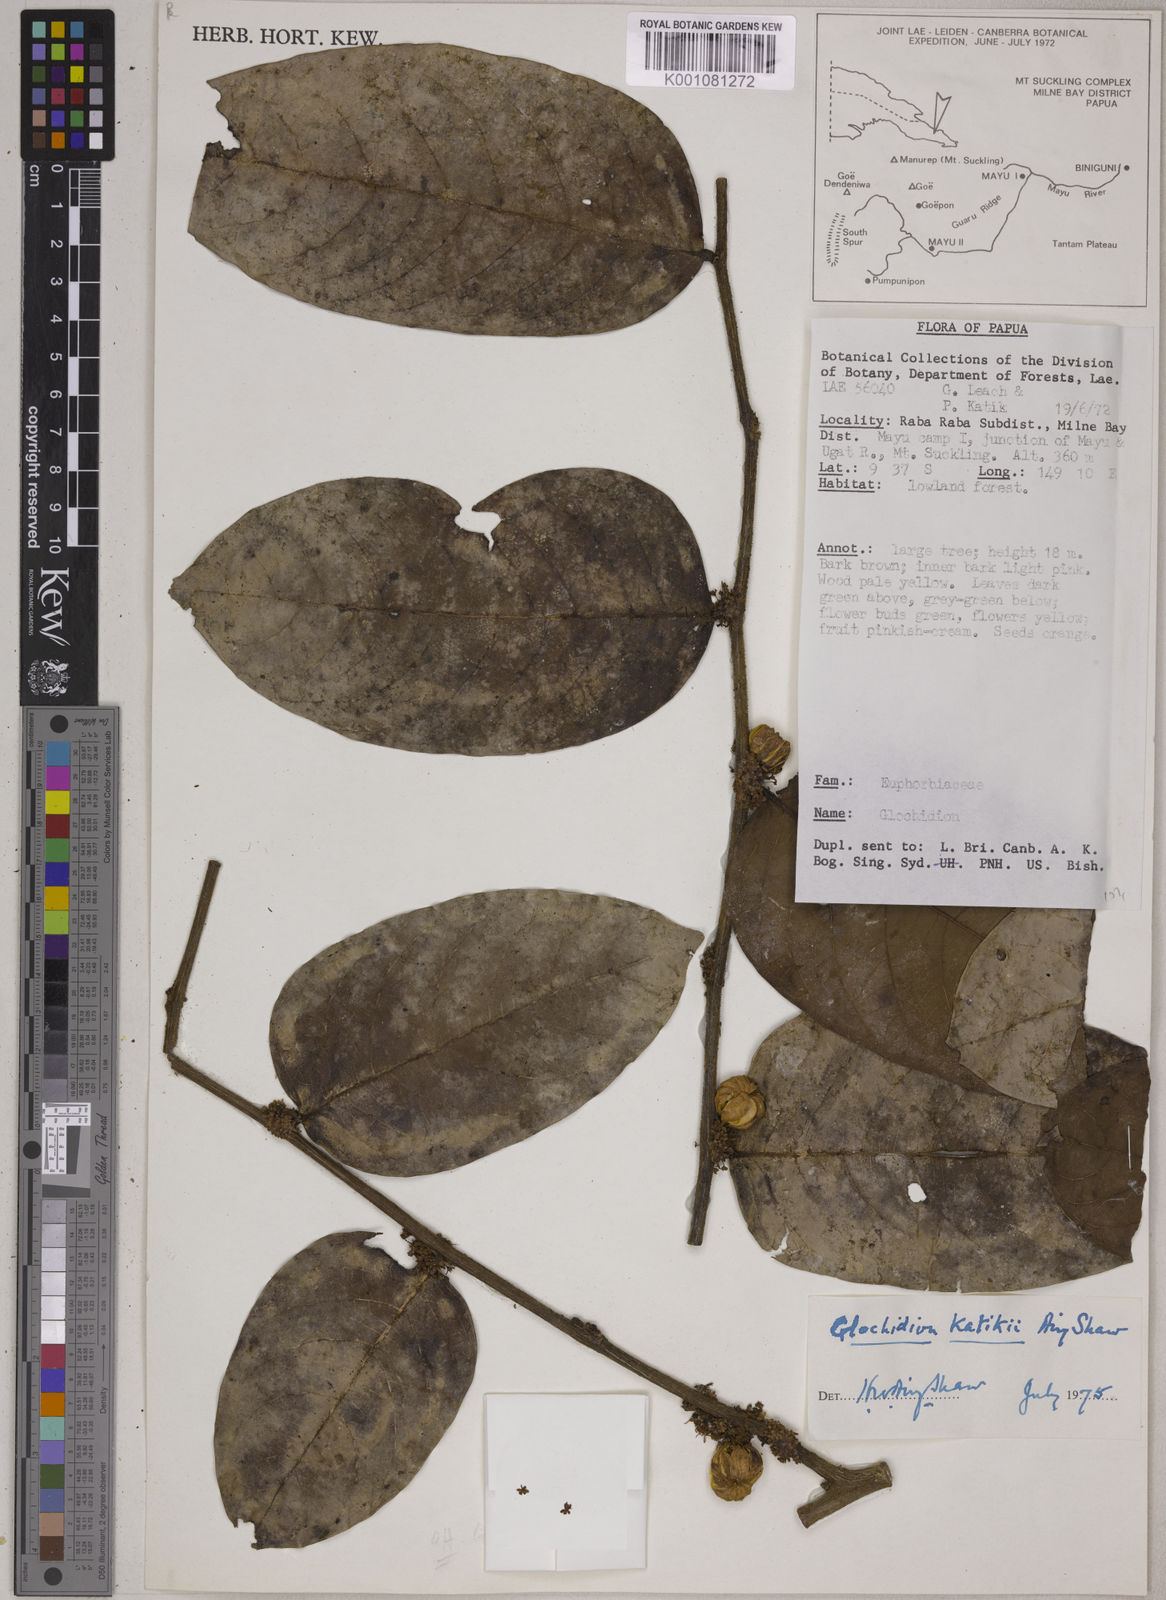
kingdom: Plantae
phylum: Tracheophyta
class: Magnoliopsida
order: Malpighiales
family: Phyllanthaceae
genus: Glochidion
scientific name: Glochidion katikii
